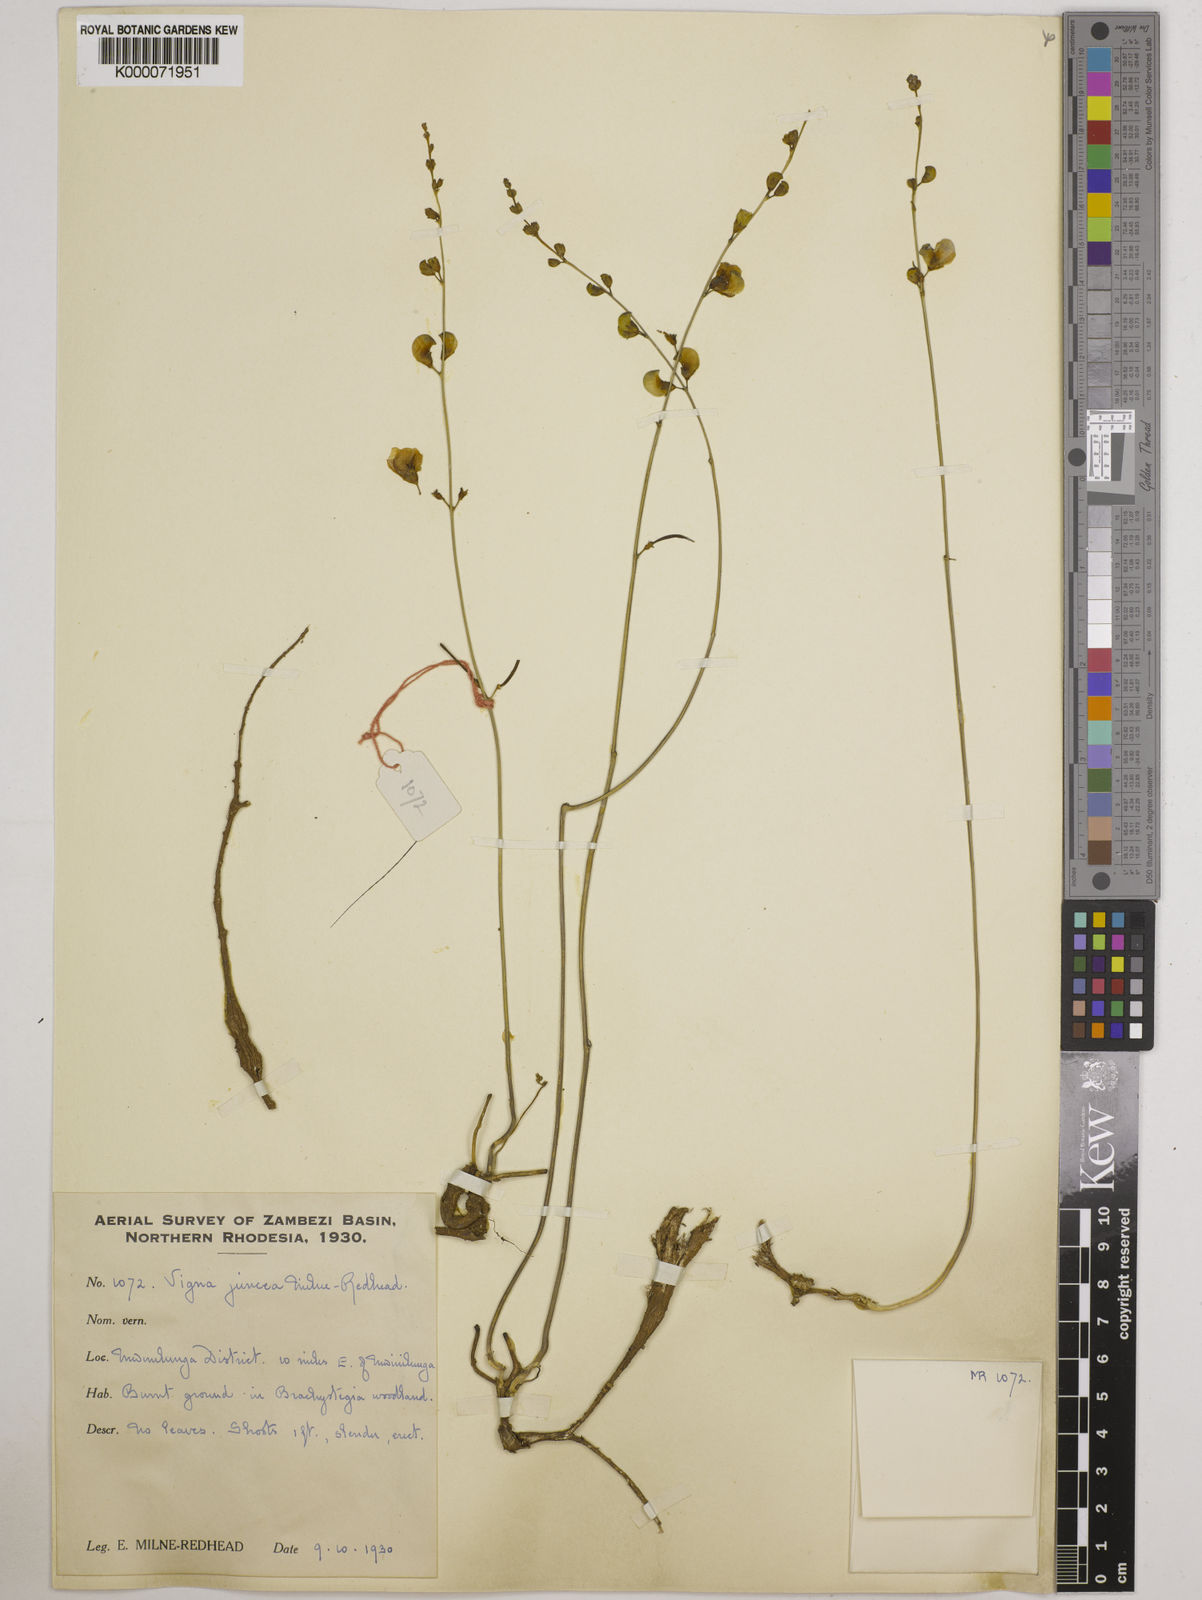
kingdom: Plantae
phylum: Tracheophyta
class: Magnoliopsida
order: Fabales
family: Fabaceae
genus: Vigna
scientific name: Vigna juncea
